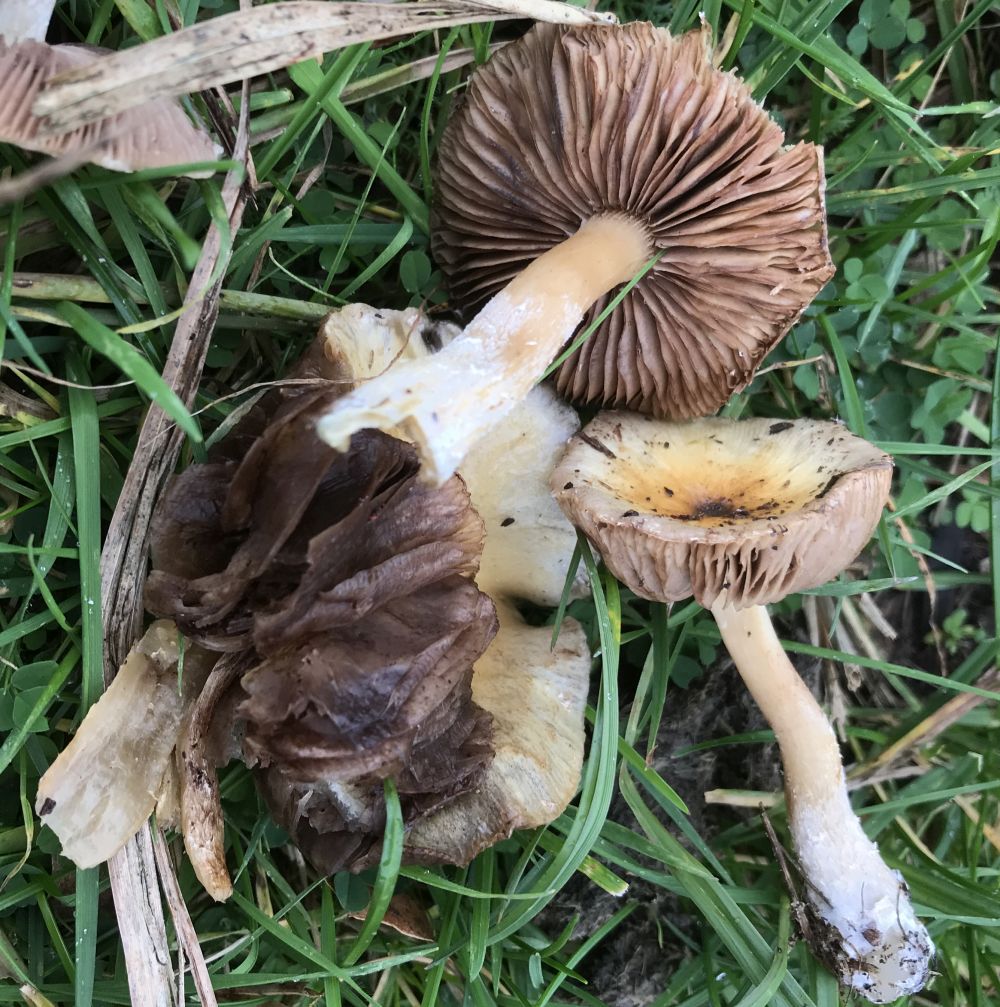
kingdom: Fungi
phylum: Basidiomycota
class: Agaricomycetes
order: Agaricales
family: Strophariaceae
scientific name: Strophariaceae
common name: bredbladfamilien
